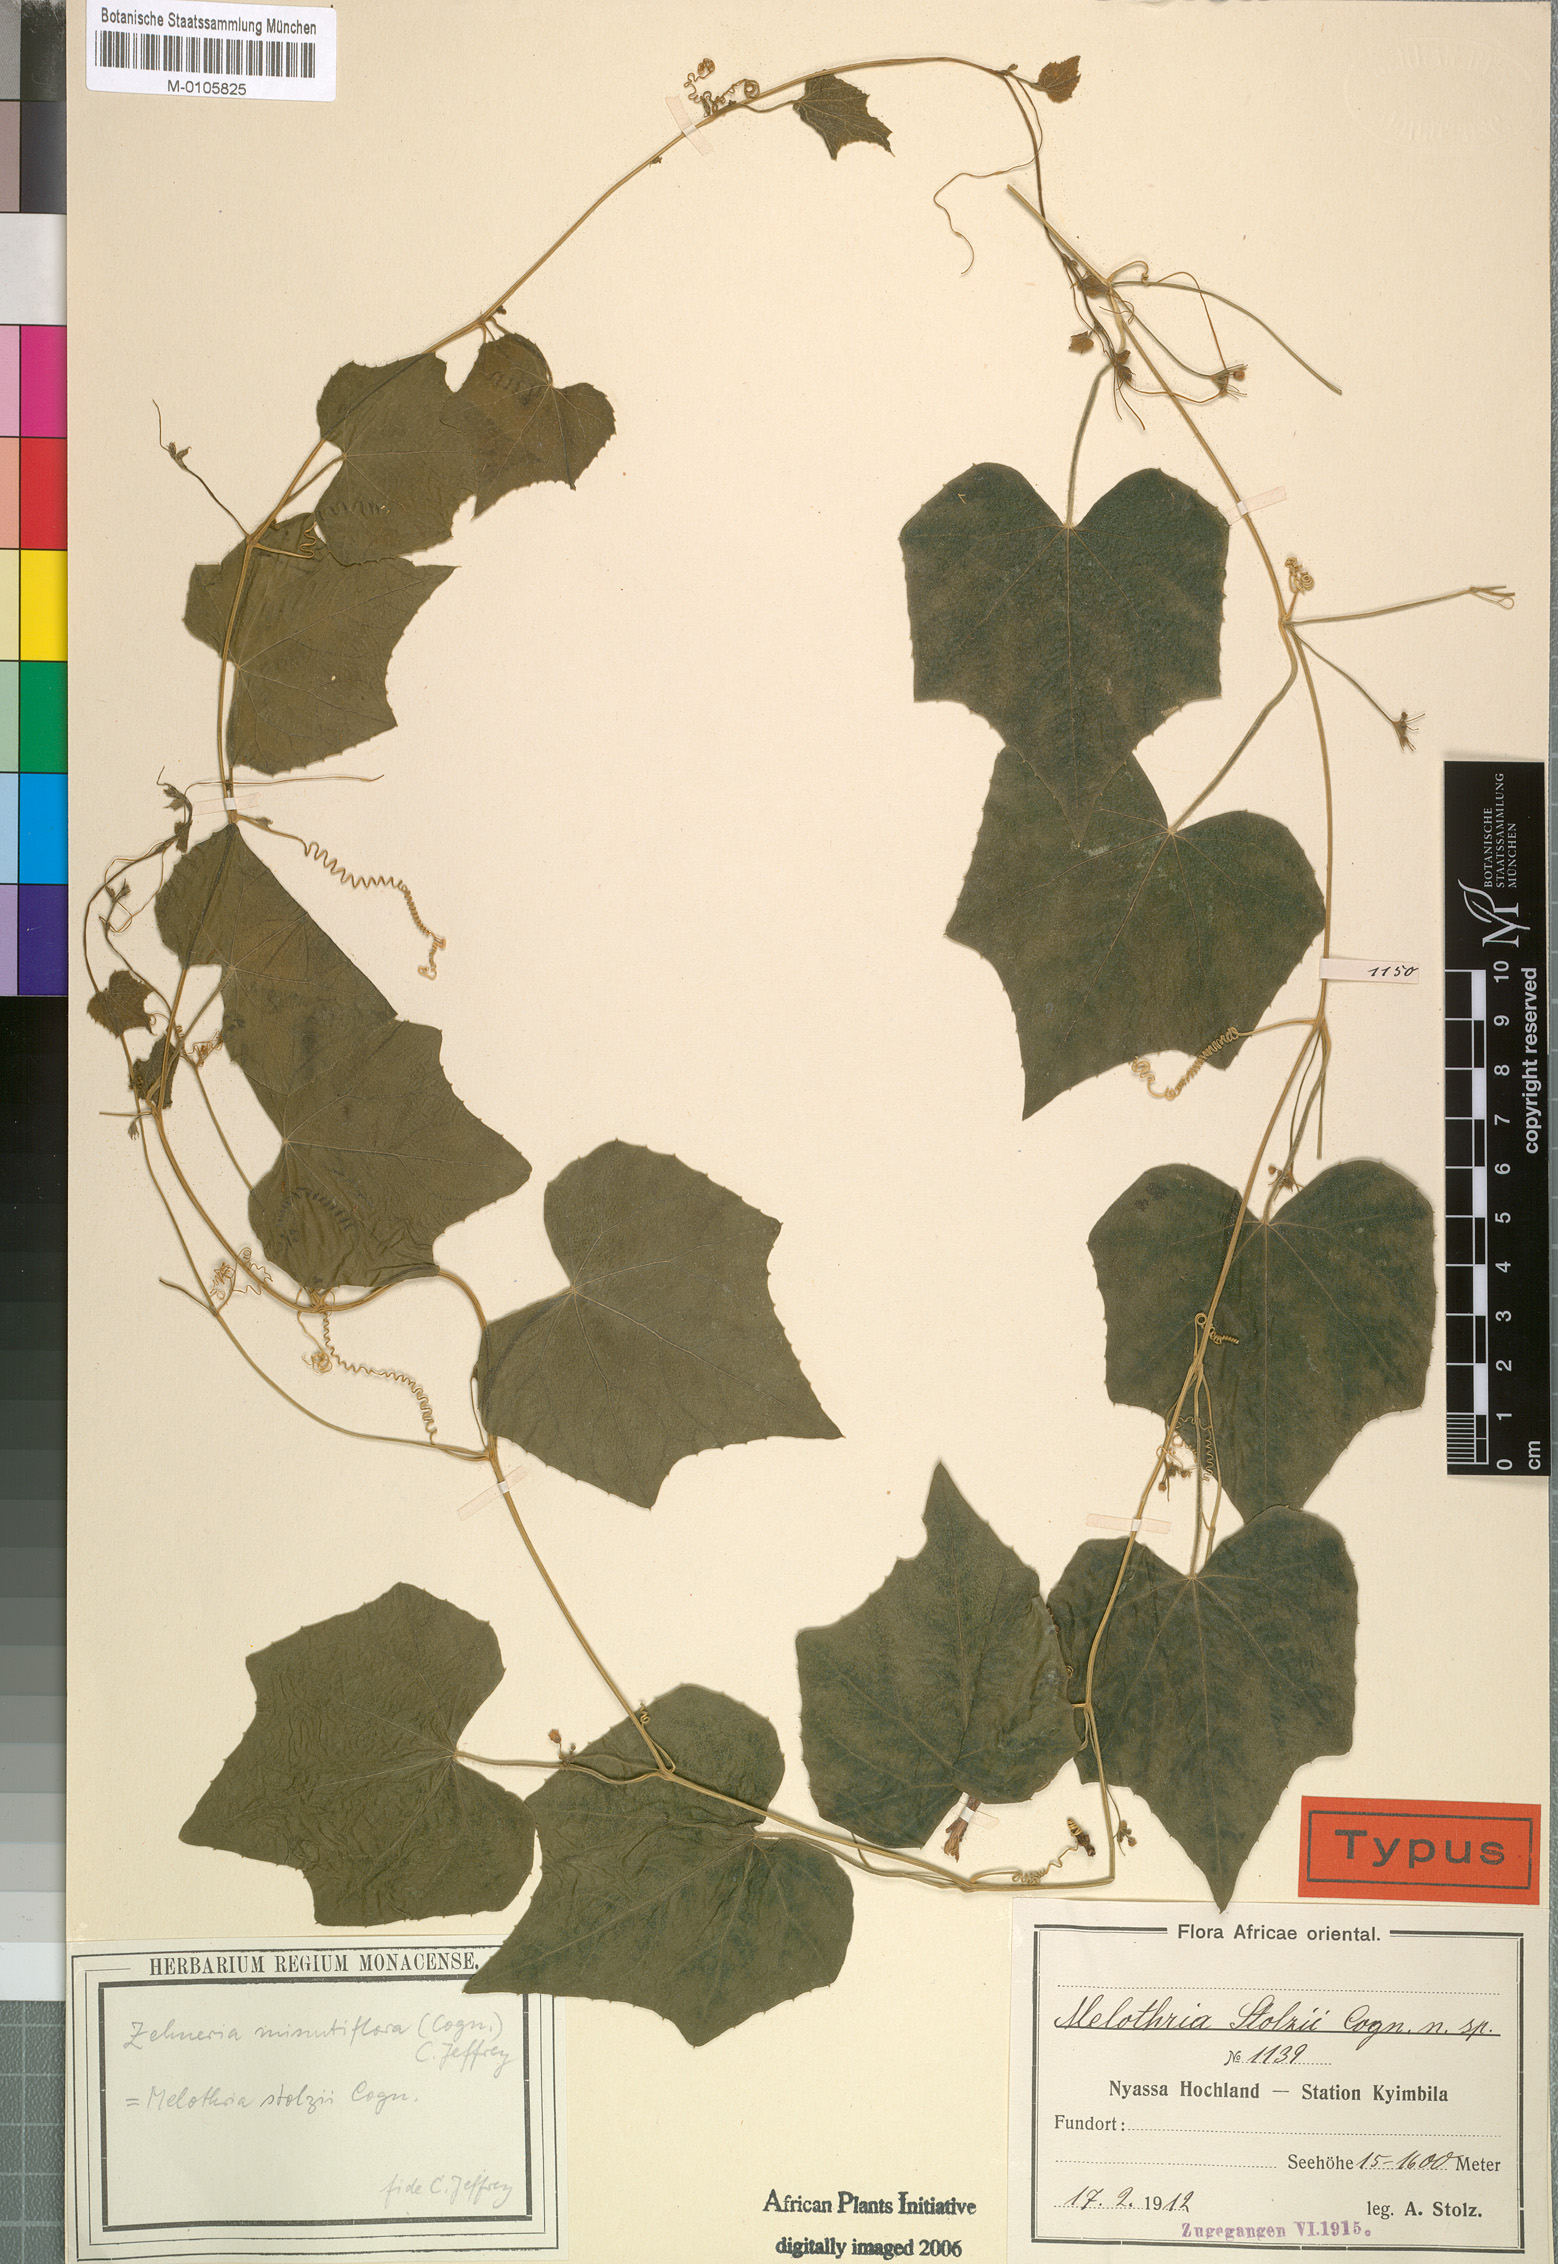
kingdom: Plantae
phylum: Tracheophyta
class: Magnoliopsida
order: Cucurbitales
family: Cucurbitaceae
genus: Zehneria
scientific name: Zehneria minutiflora
